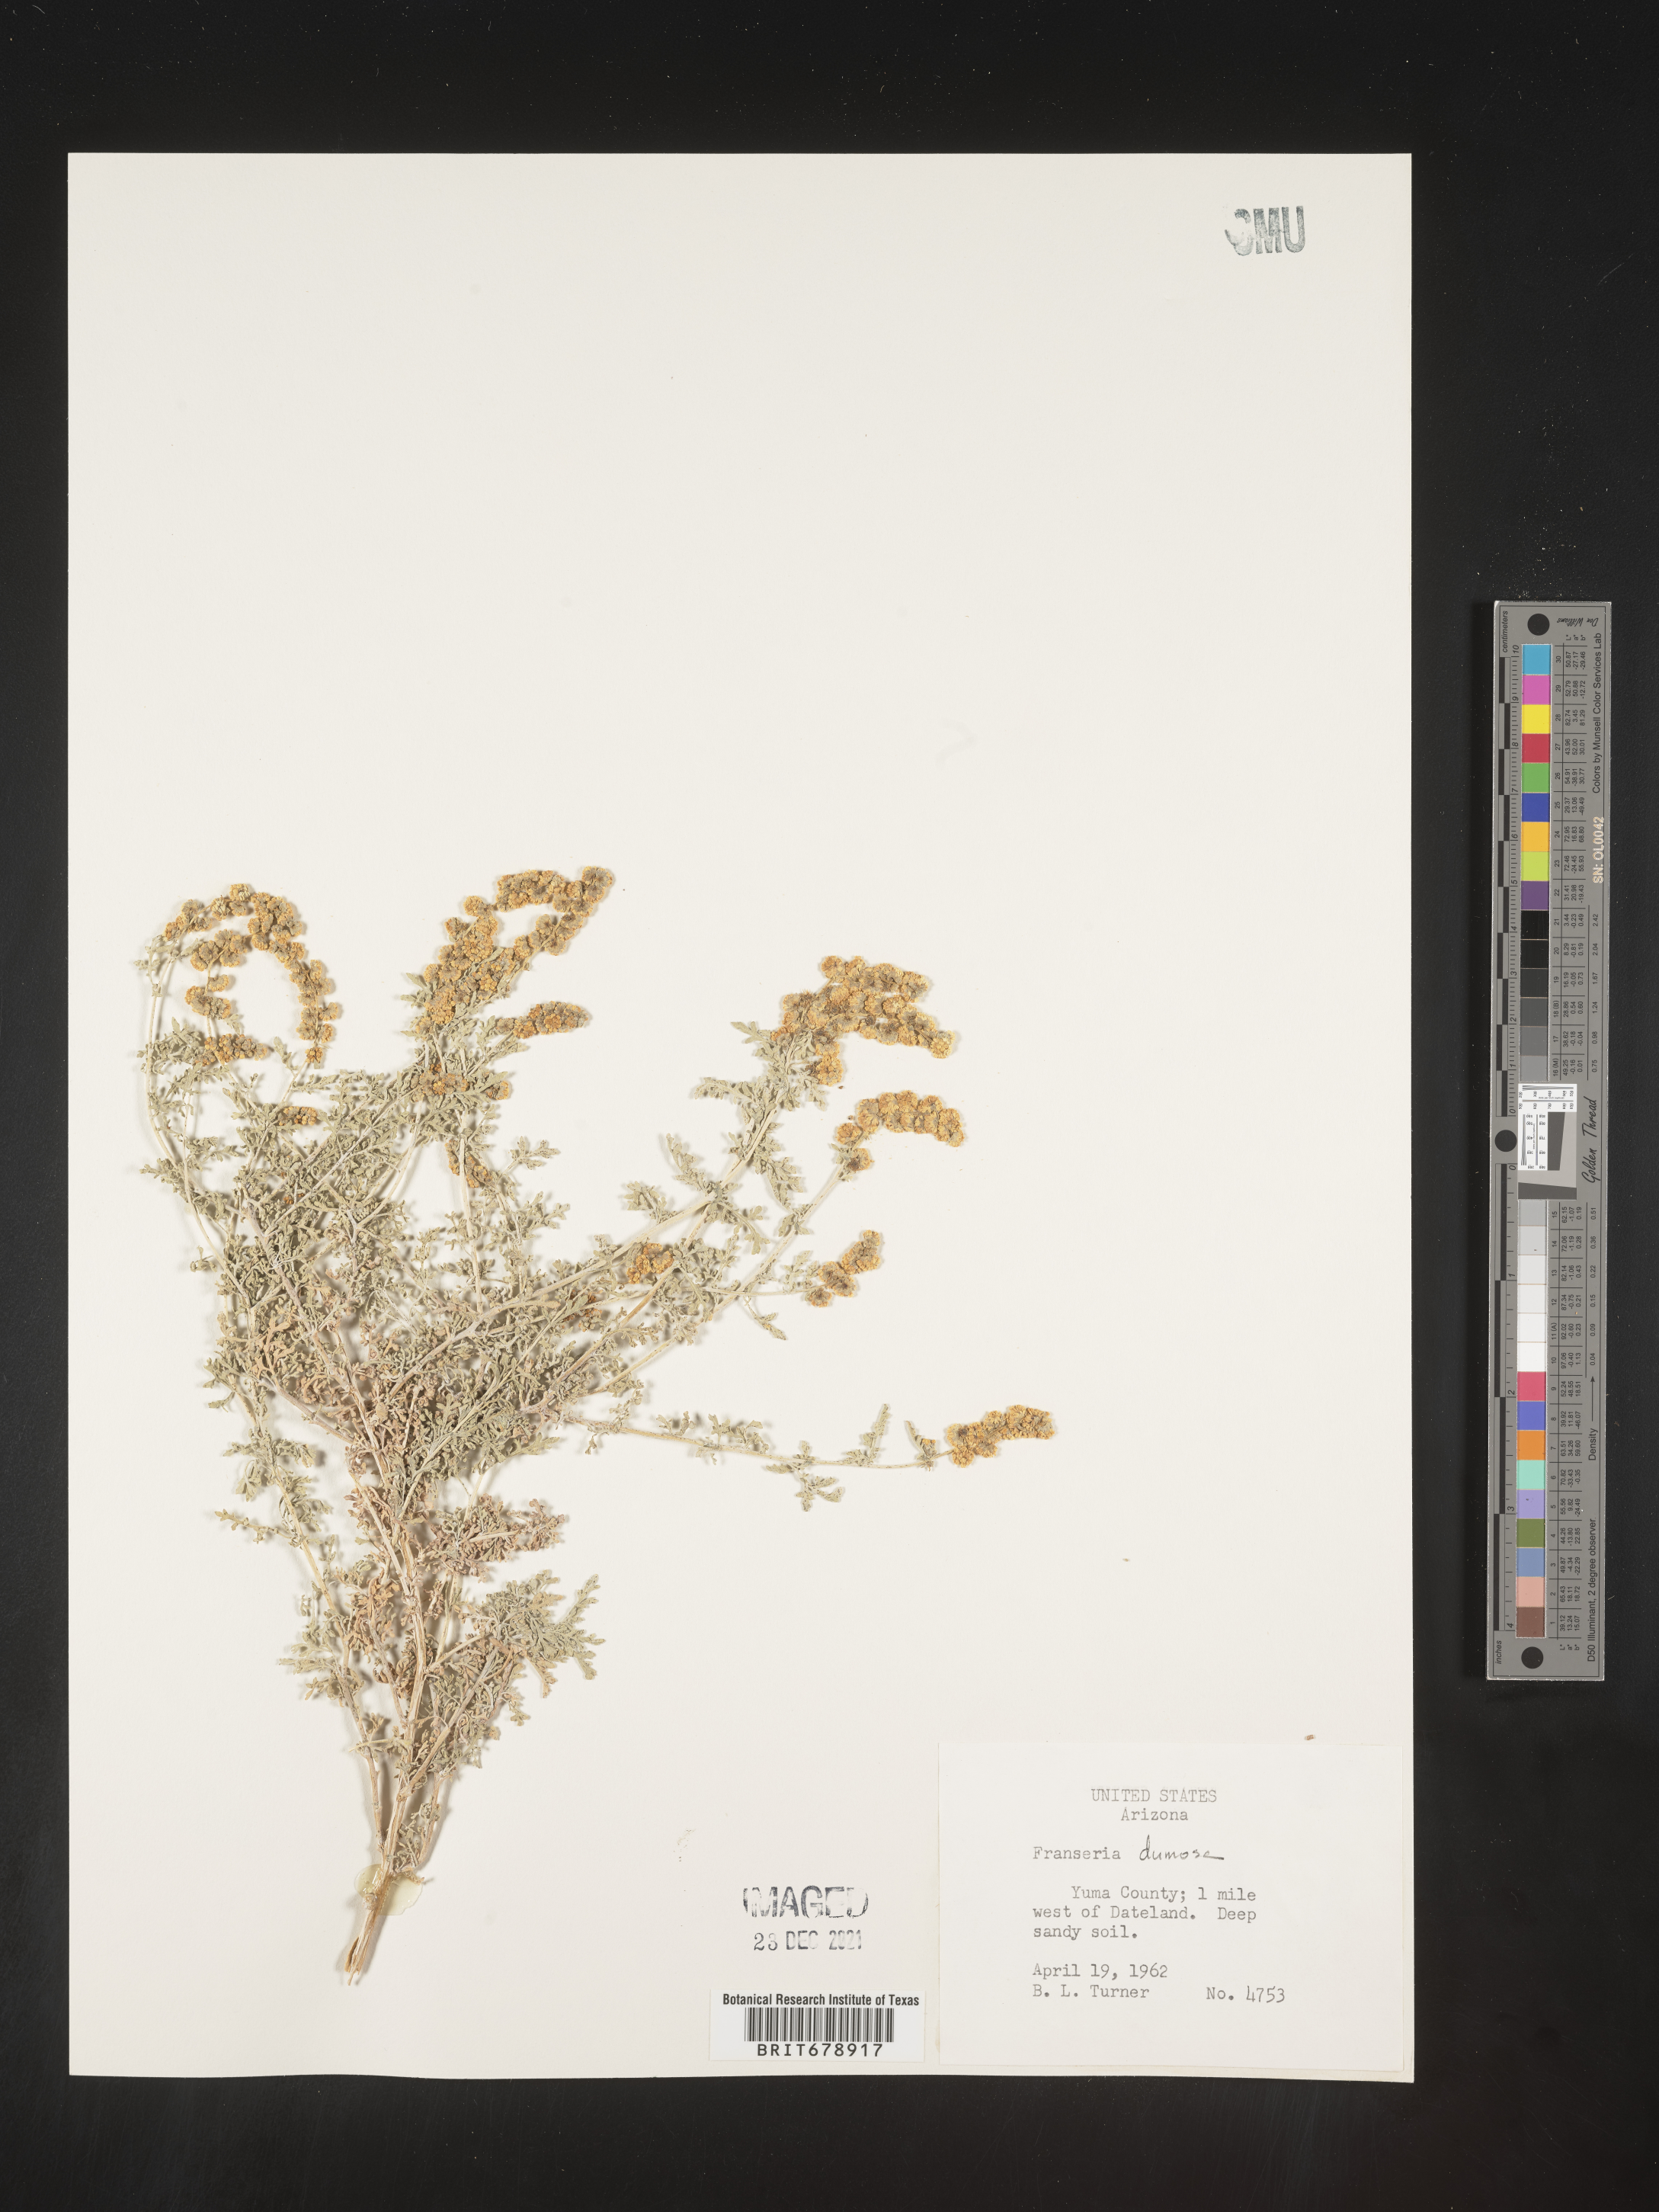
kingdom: Plantae
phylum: Tracheophyta
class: Magnoliopsida
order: Asterales
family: Asteraceae
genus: Ambrosia
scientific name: Ambrosia dumosa
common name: Bur-sage
